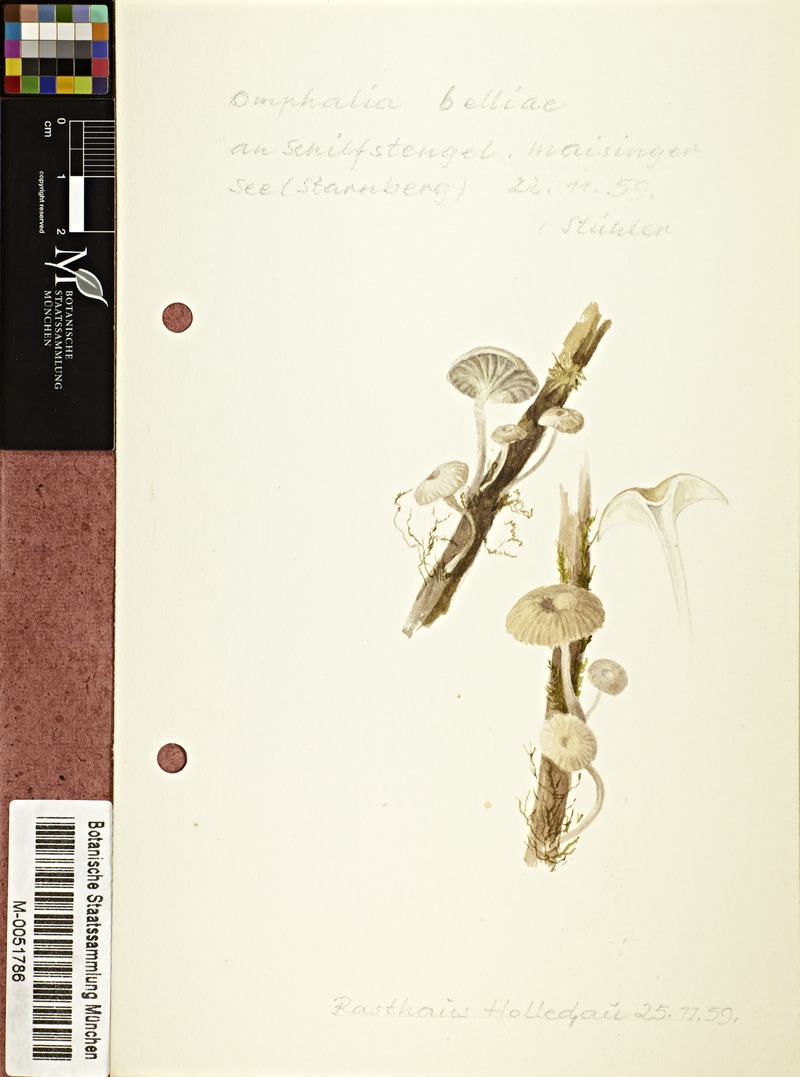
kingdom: Fungi
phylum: Basidiomycota
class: Agaricomycetes
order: Agaricales
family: Mycenaceae
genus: Mycena
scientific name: Mycena belliae
